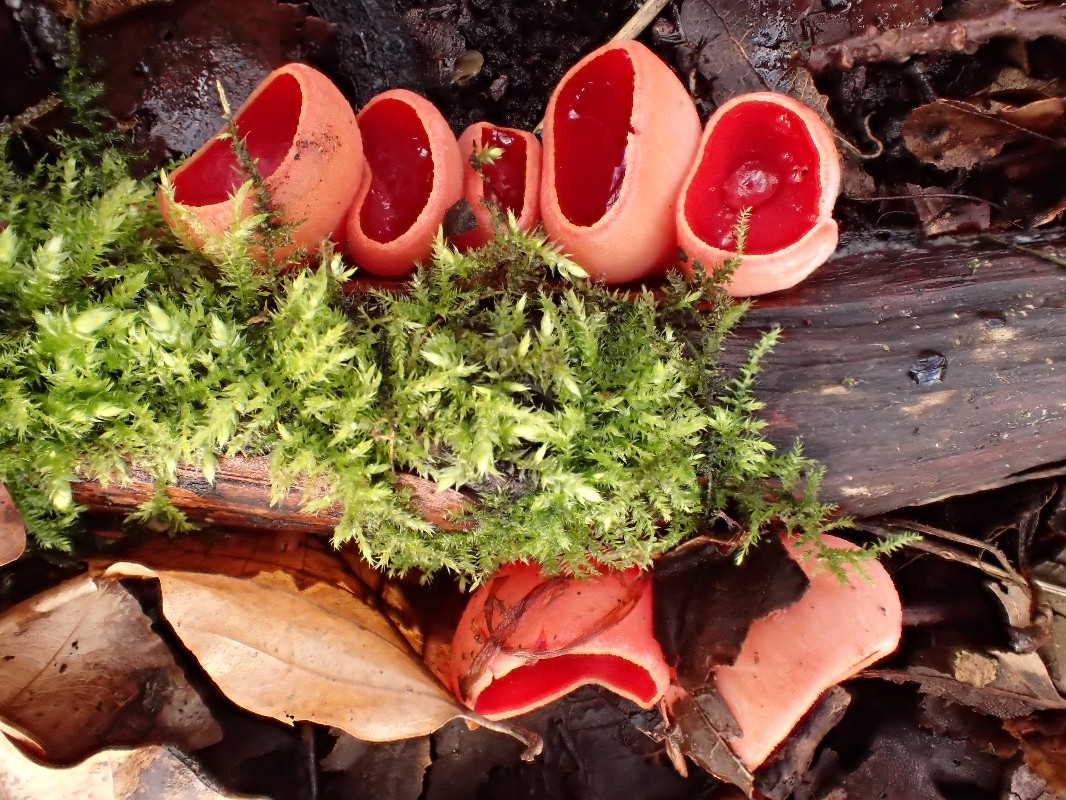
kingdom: Fungi
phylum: Ascomycota
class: Pezizomycetes
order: Pezizales
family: Sarcoscyphaceae
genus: Sarcoscypha
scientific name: Sarcoscypha austriaca
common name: krølhåret pragtbæger
